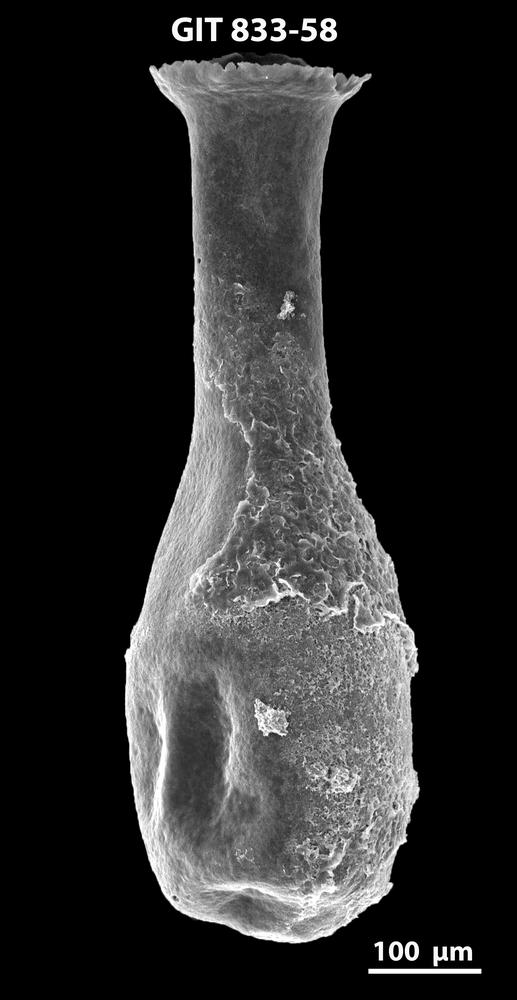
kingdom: Animalia
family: Lagenochitinidae
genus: Lagenochitina
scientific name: Lagenochitina megaesthonica
